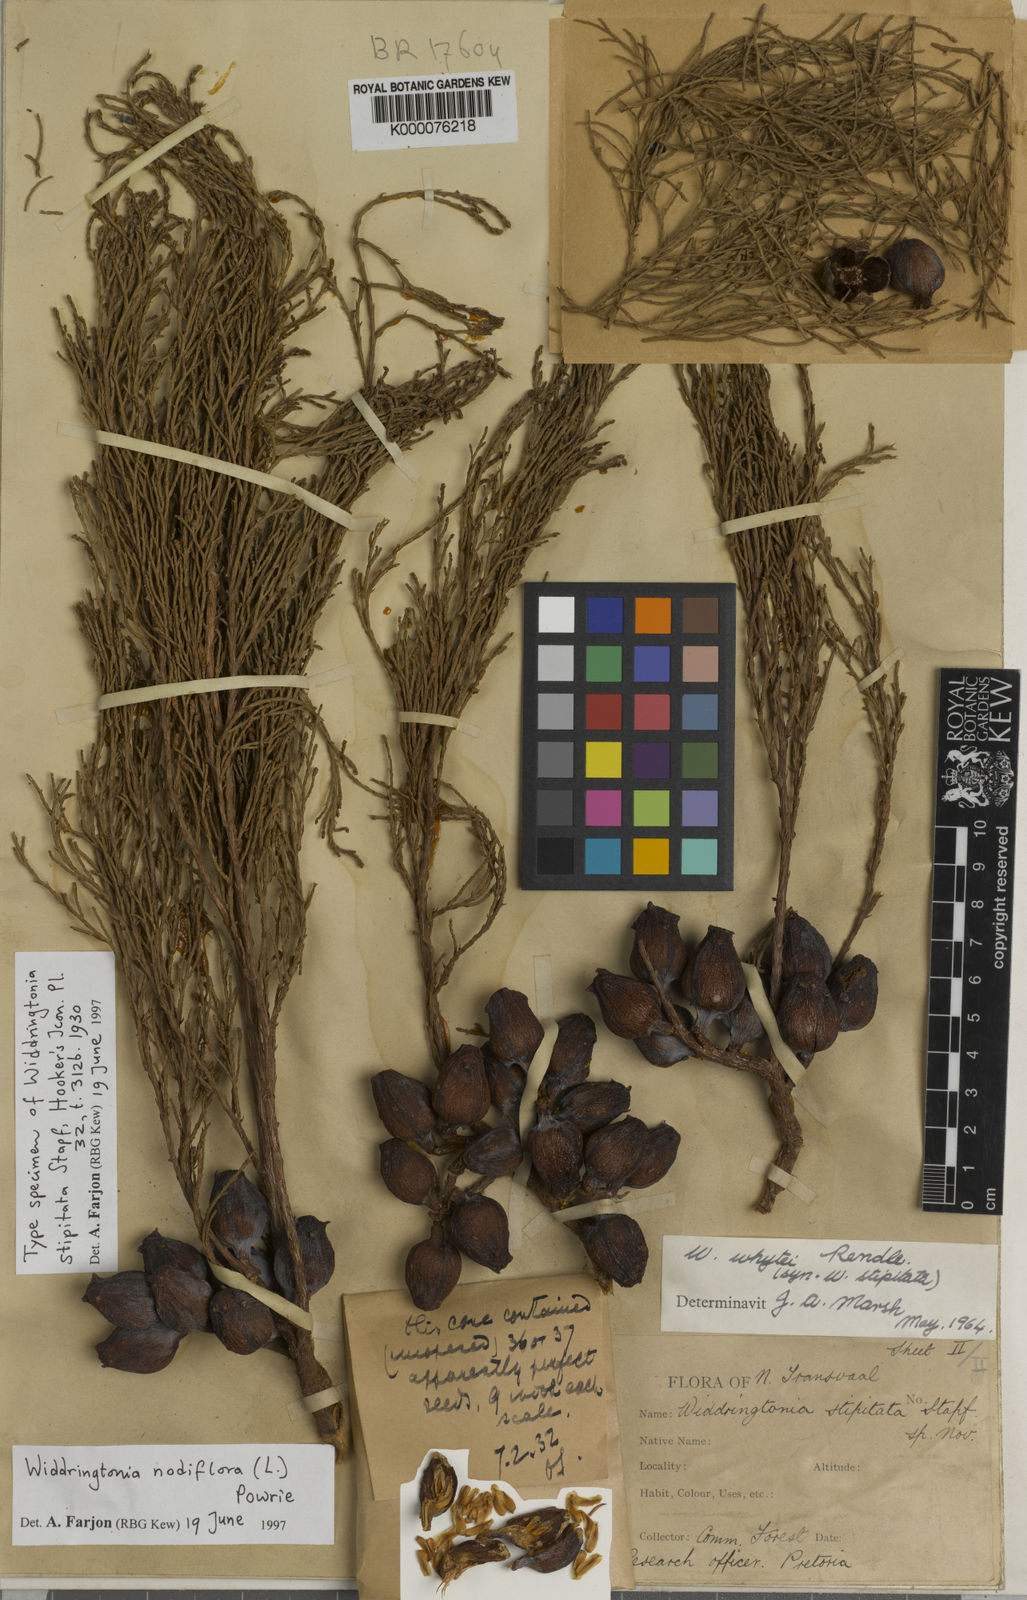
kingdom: Plantae
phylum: Tracheophyta
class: Pinopsida
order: Pinales
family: Cupressaceae
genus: Widdringtonia
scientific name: Widdringtonia nodiflora
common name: Cape cypress
